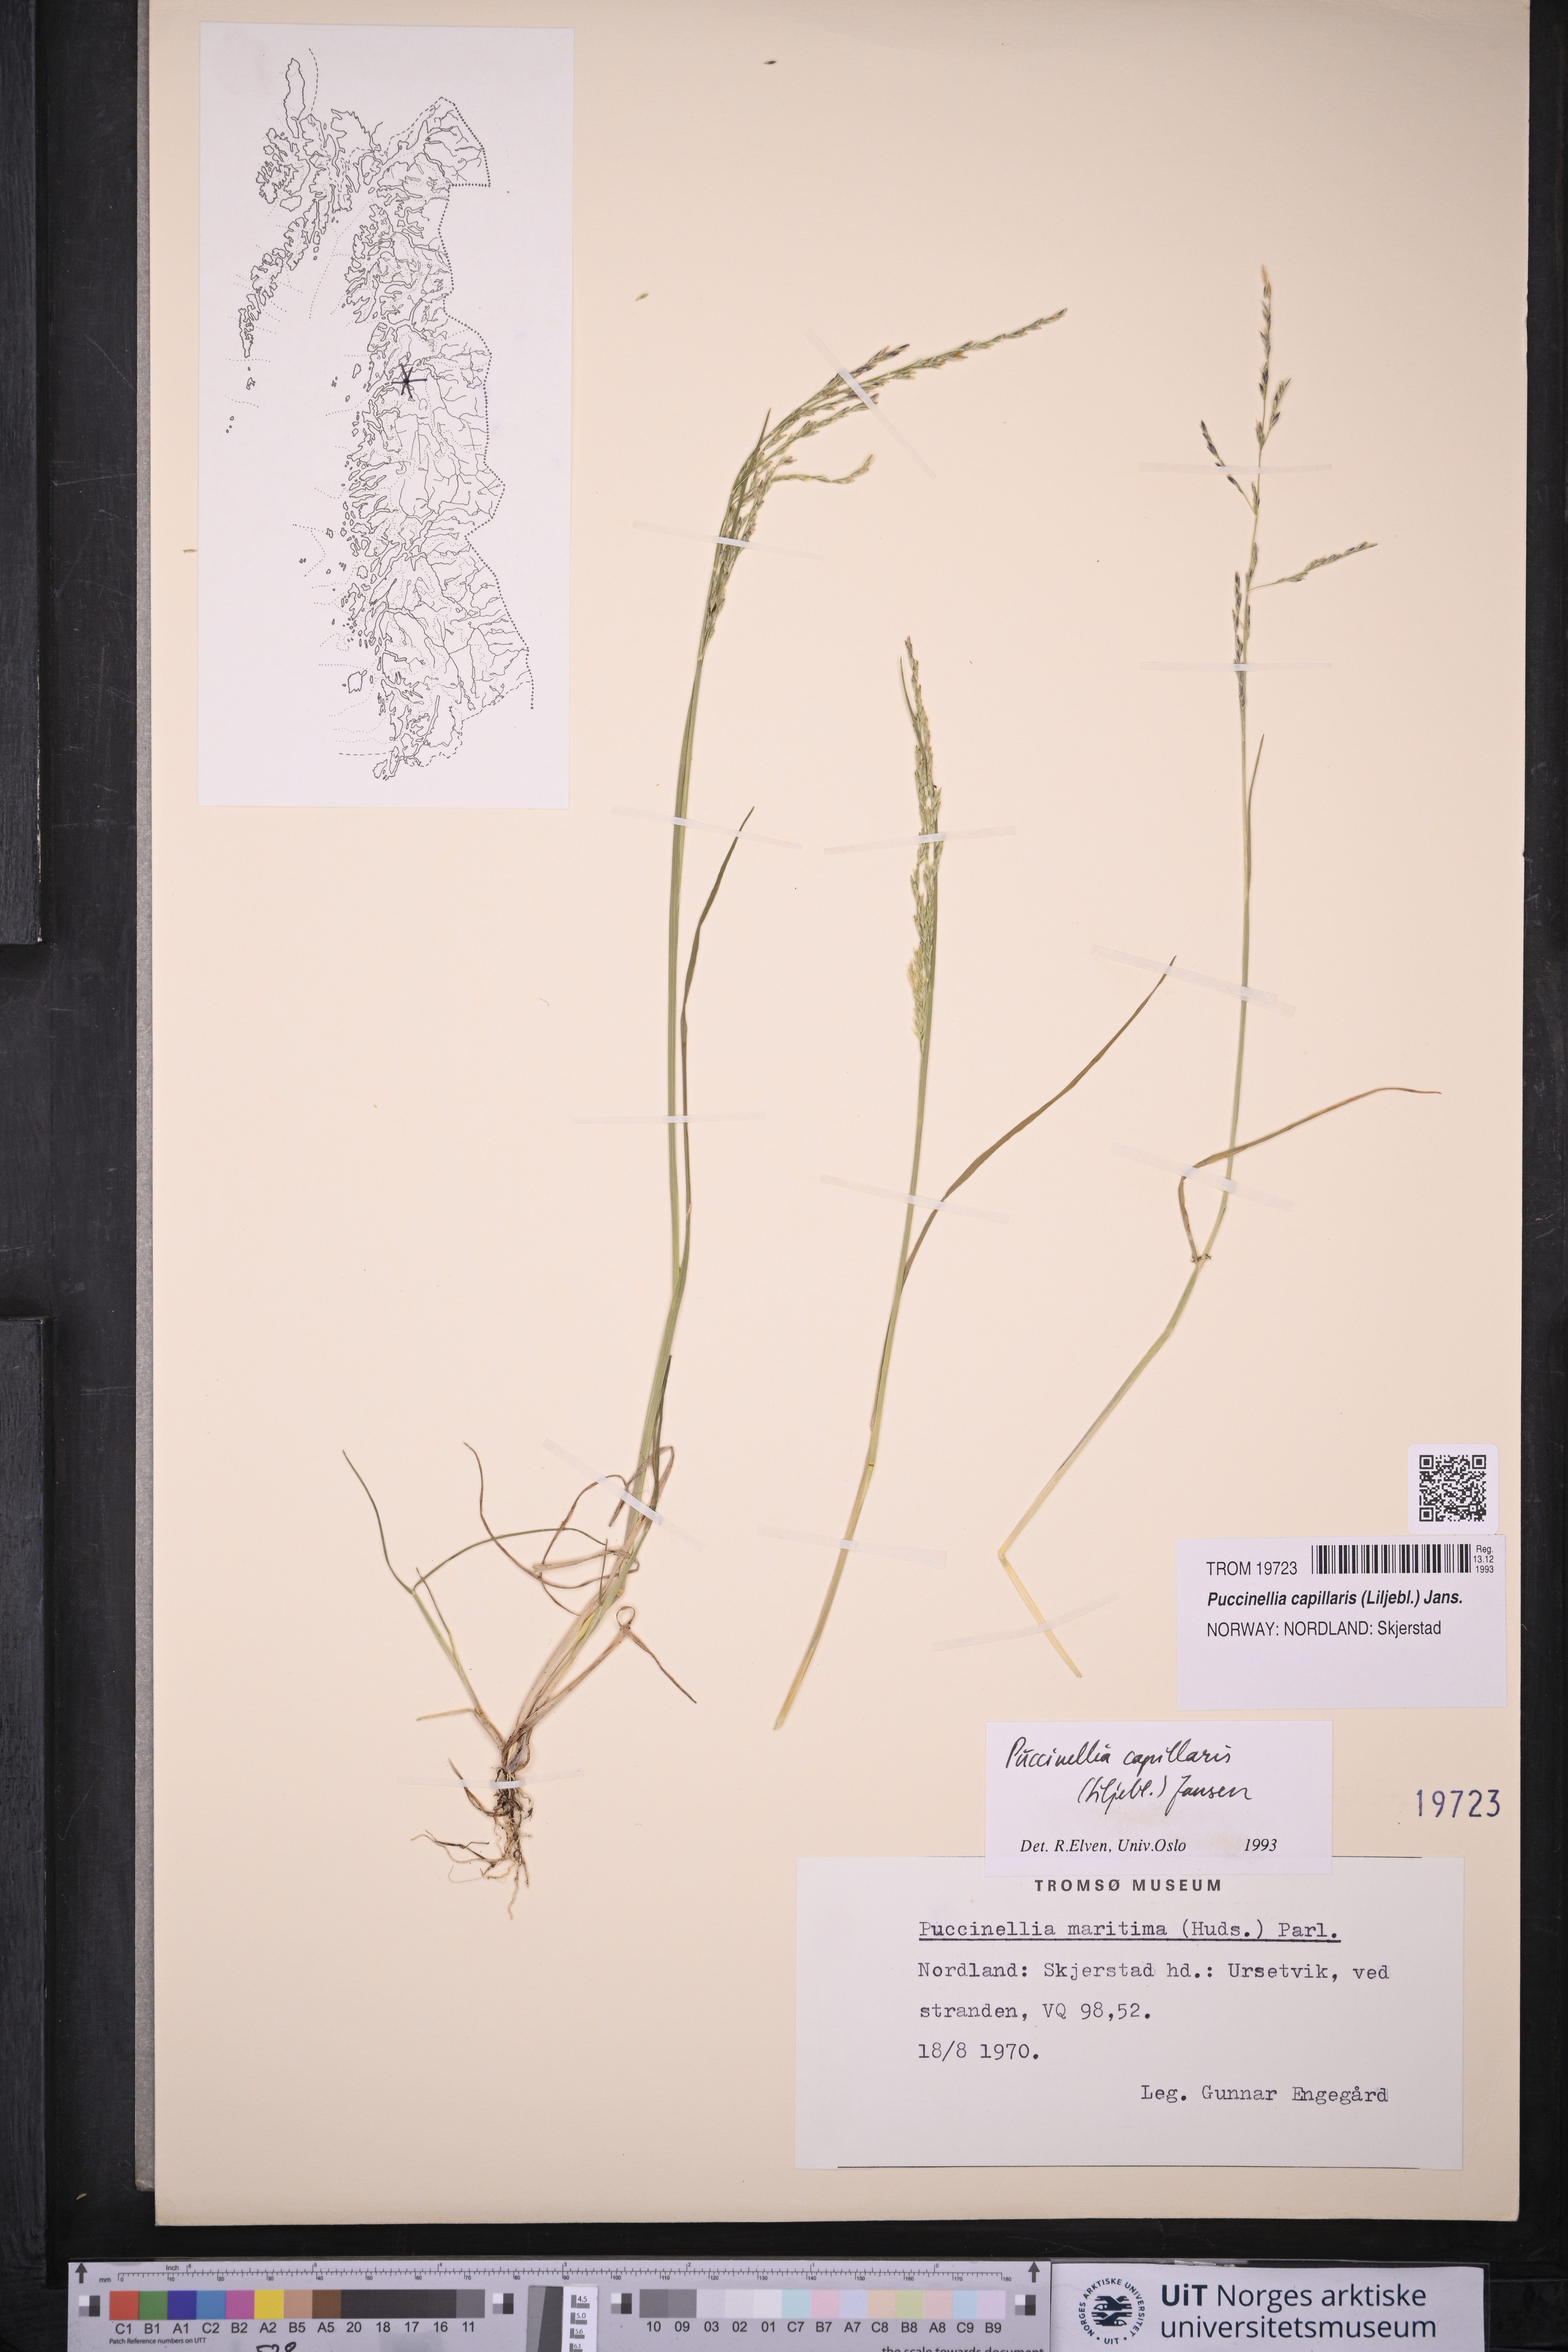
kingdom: Plantae
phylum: Tracheophyta
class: Liliopsida
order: Poales
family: Poaceae
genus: Puccinellia
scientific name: Puccinellia distans
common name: Weeping alkaligrass
